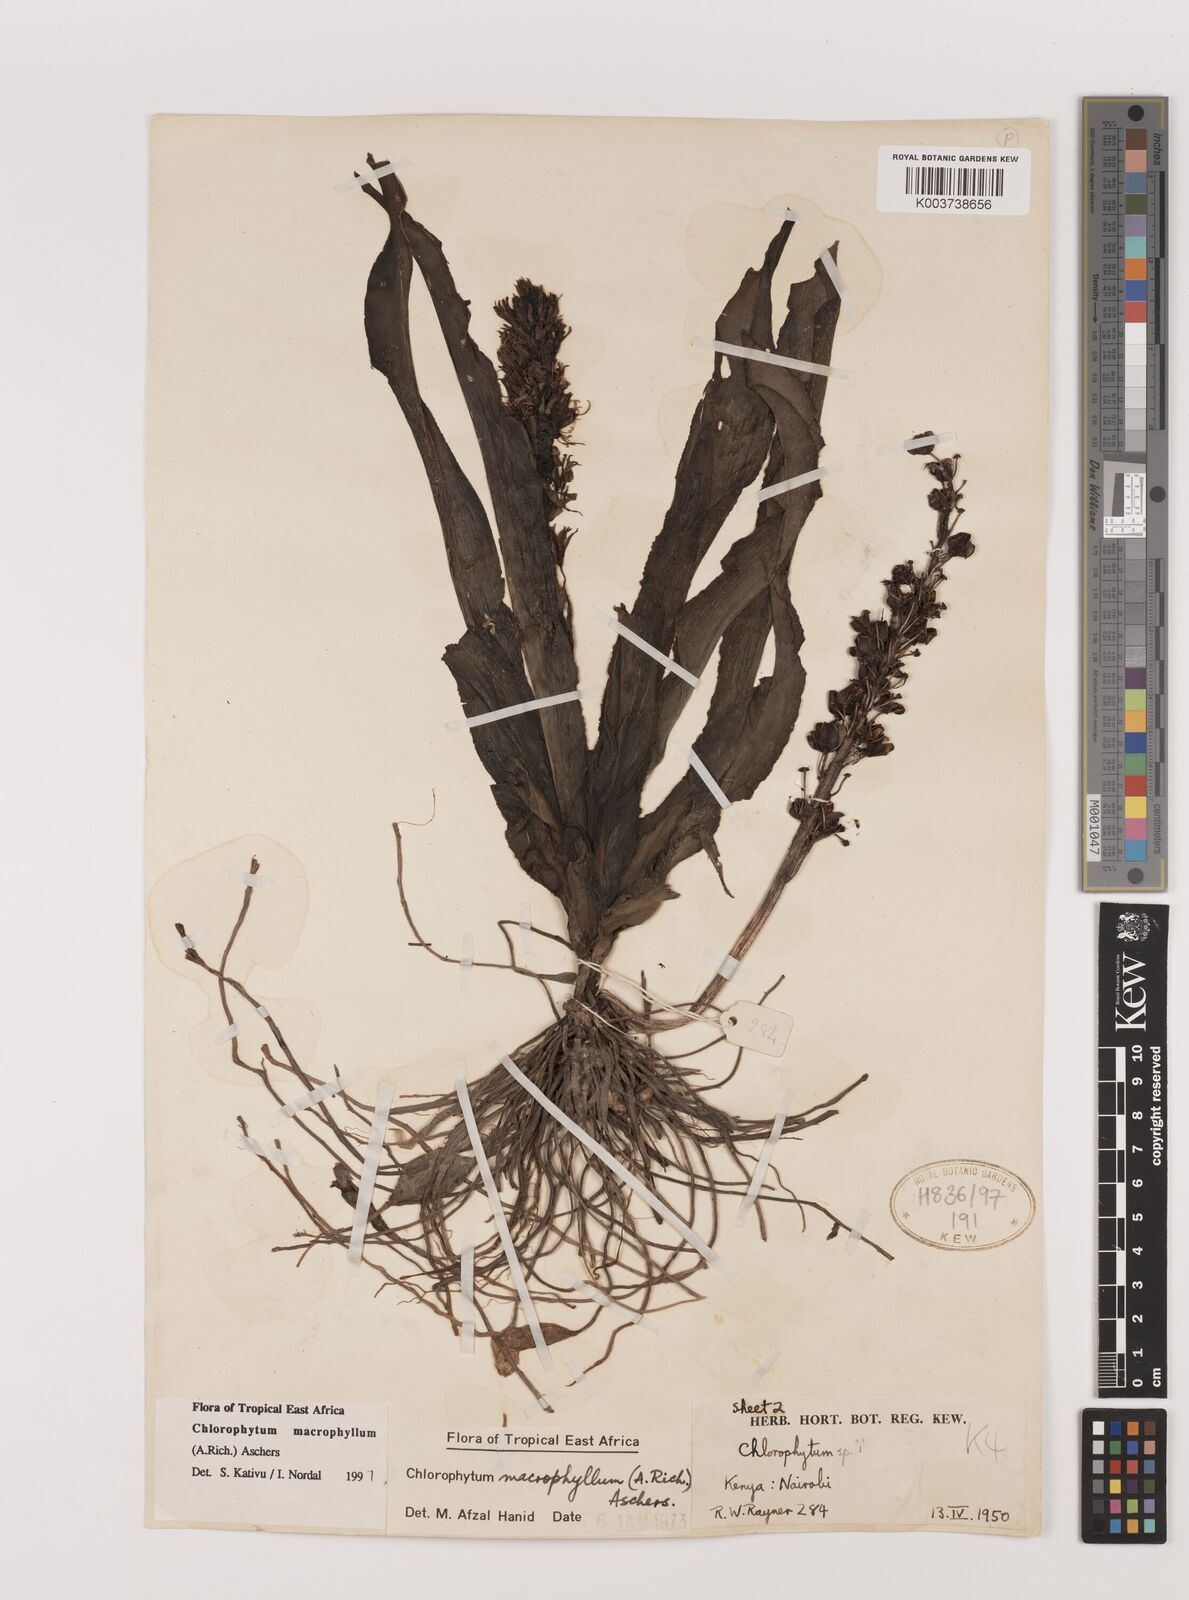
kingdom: Plantae
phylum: Tracheophyta
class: Liliopsida
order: Asparagales
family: Asparagaceae
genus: Chlorophytum
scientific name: Chlorophytum macrophyllum
